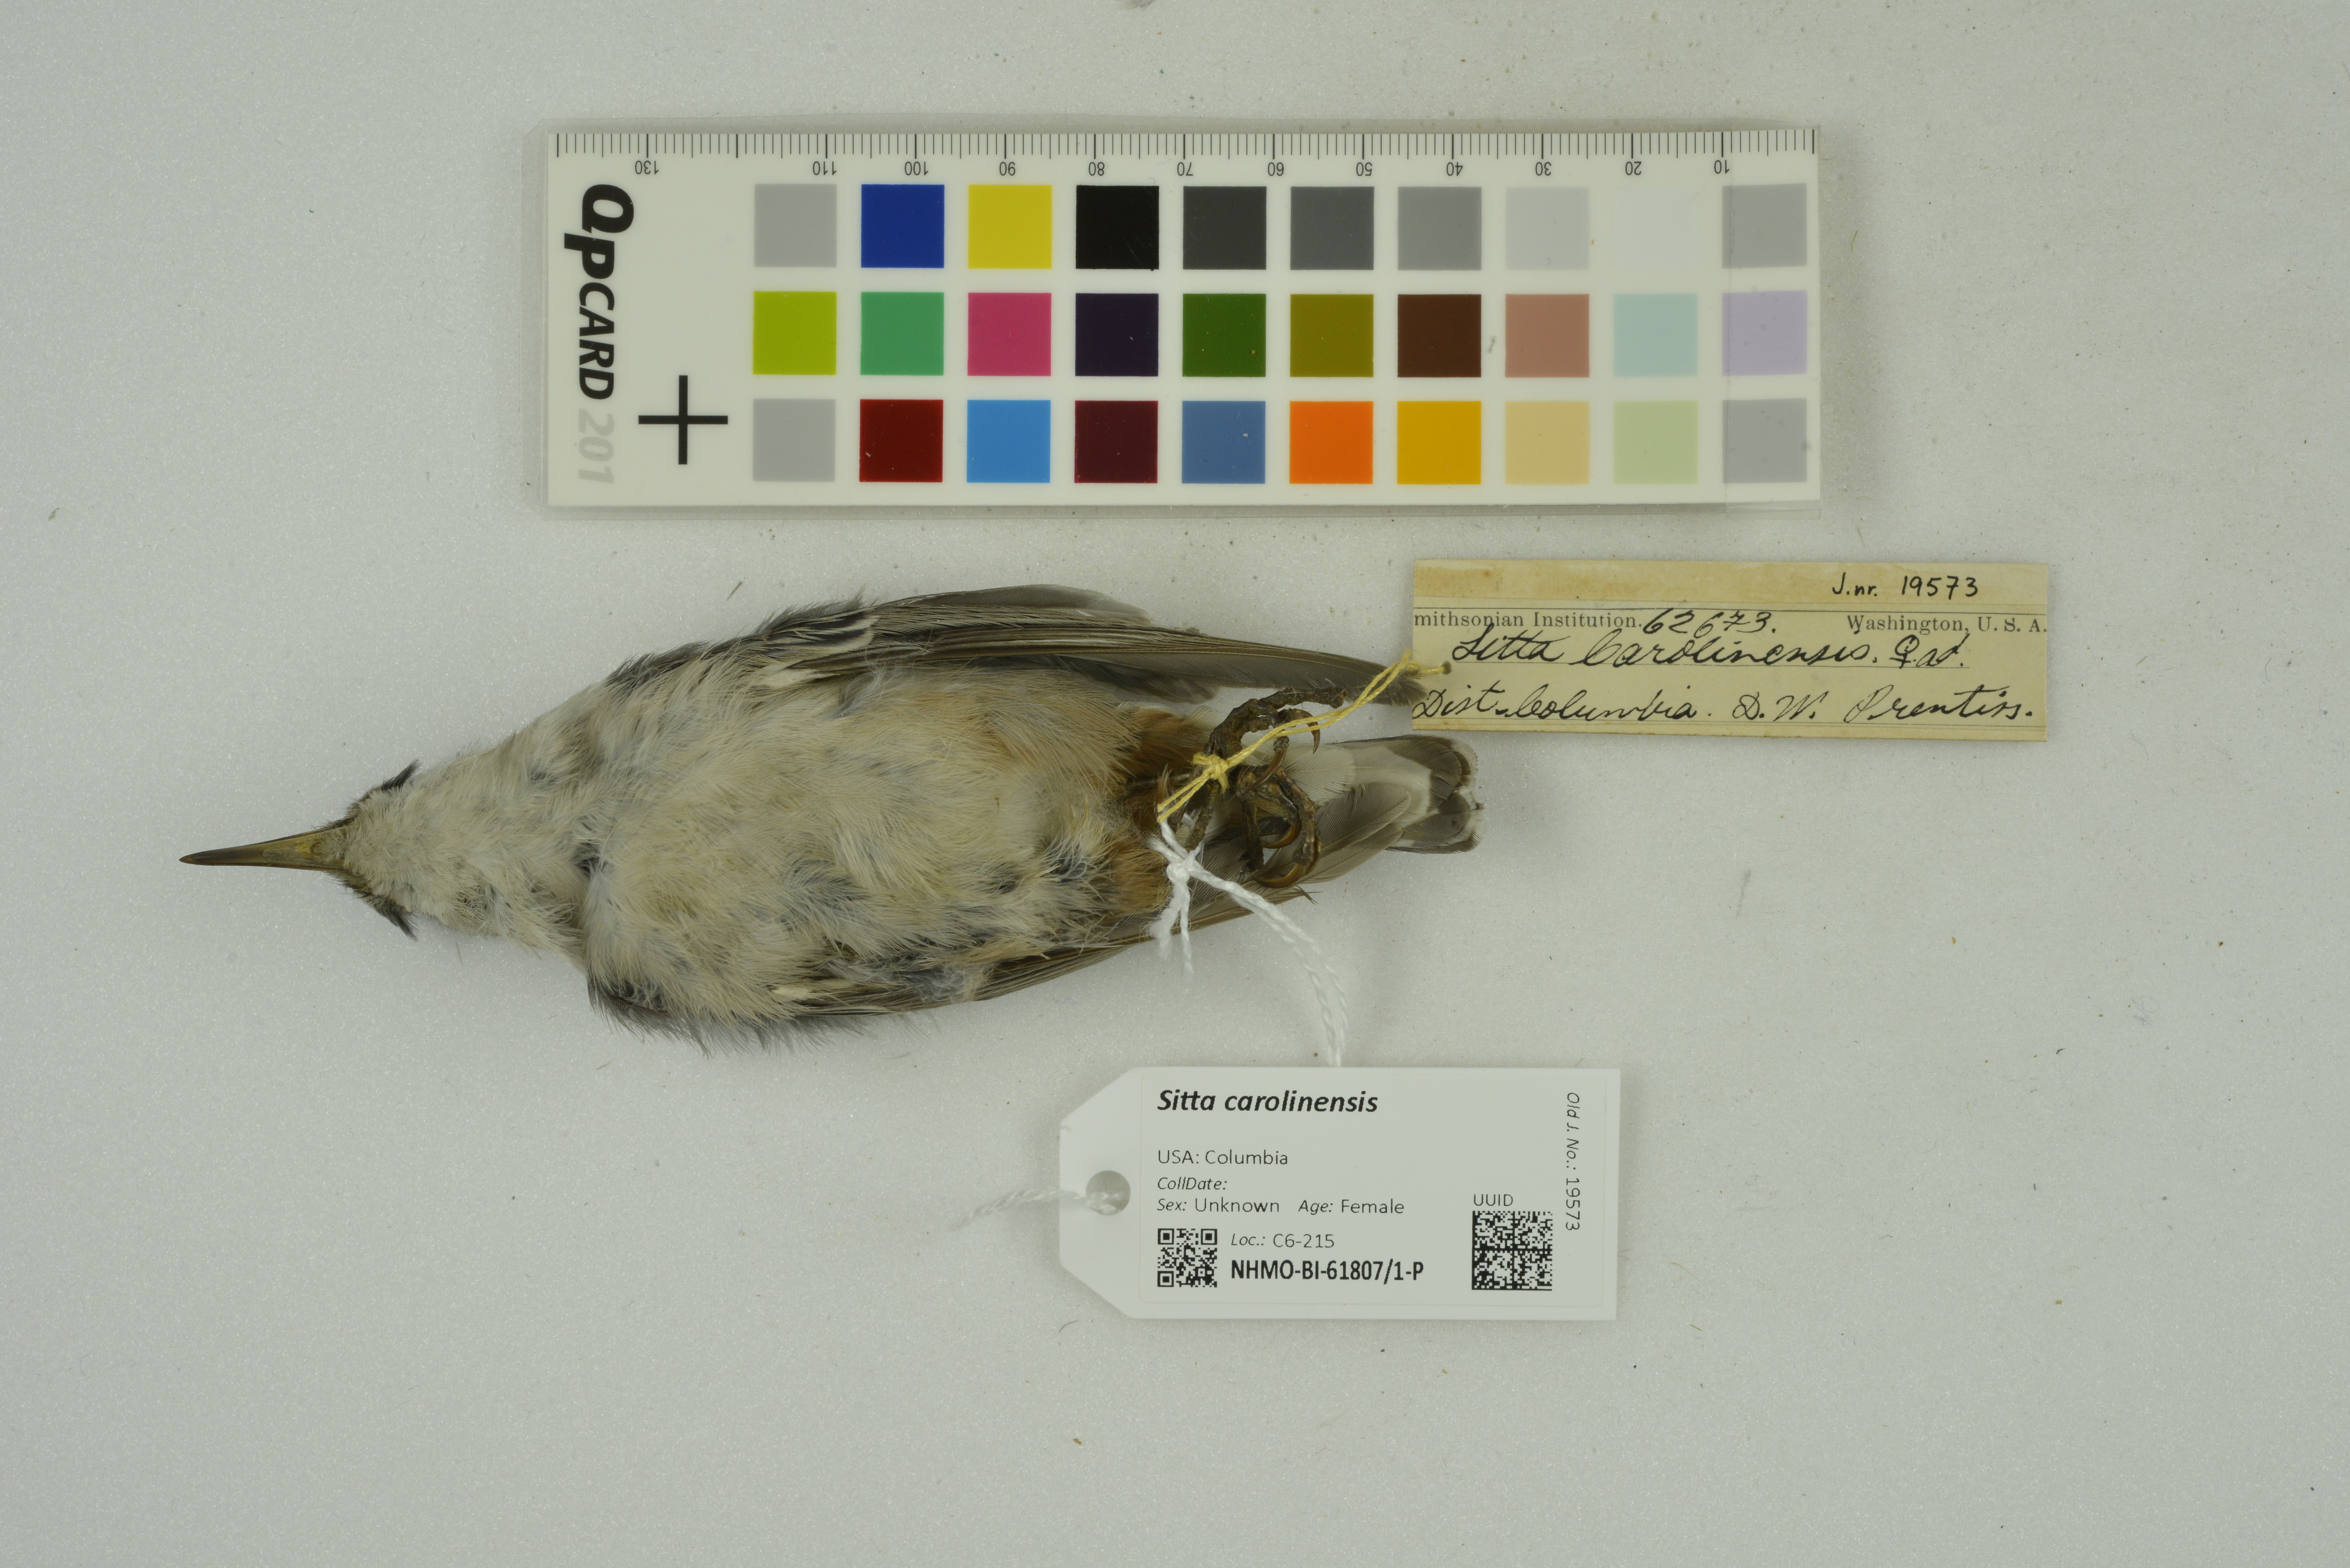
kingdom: Animalia
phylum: Chordata
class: Aves
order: Passeriformes
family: Sittidae
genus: Sitta
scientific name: Sitta carolinensis
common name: White-breasted nuthatch
